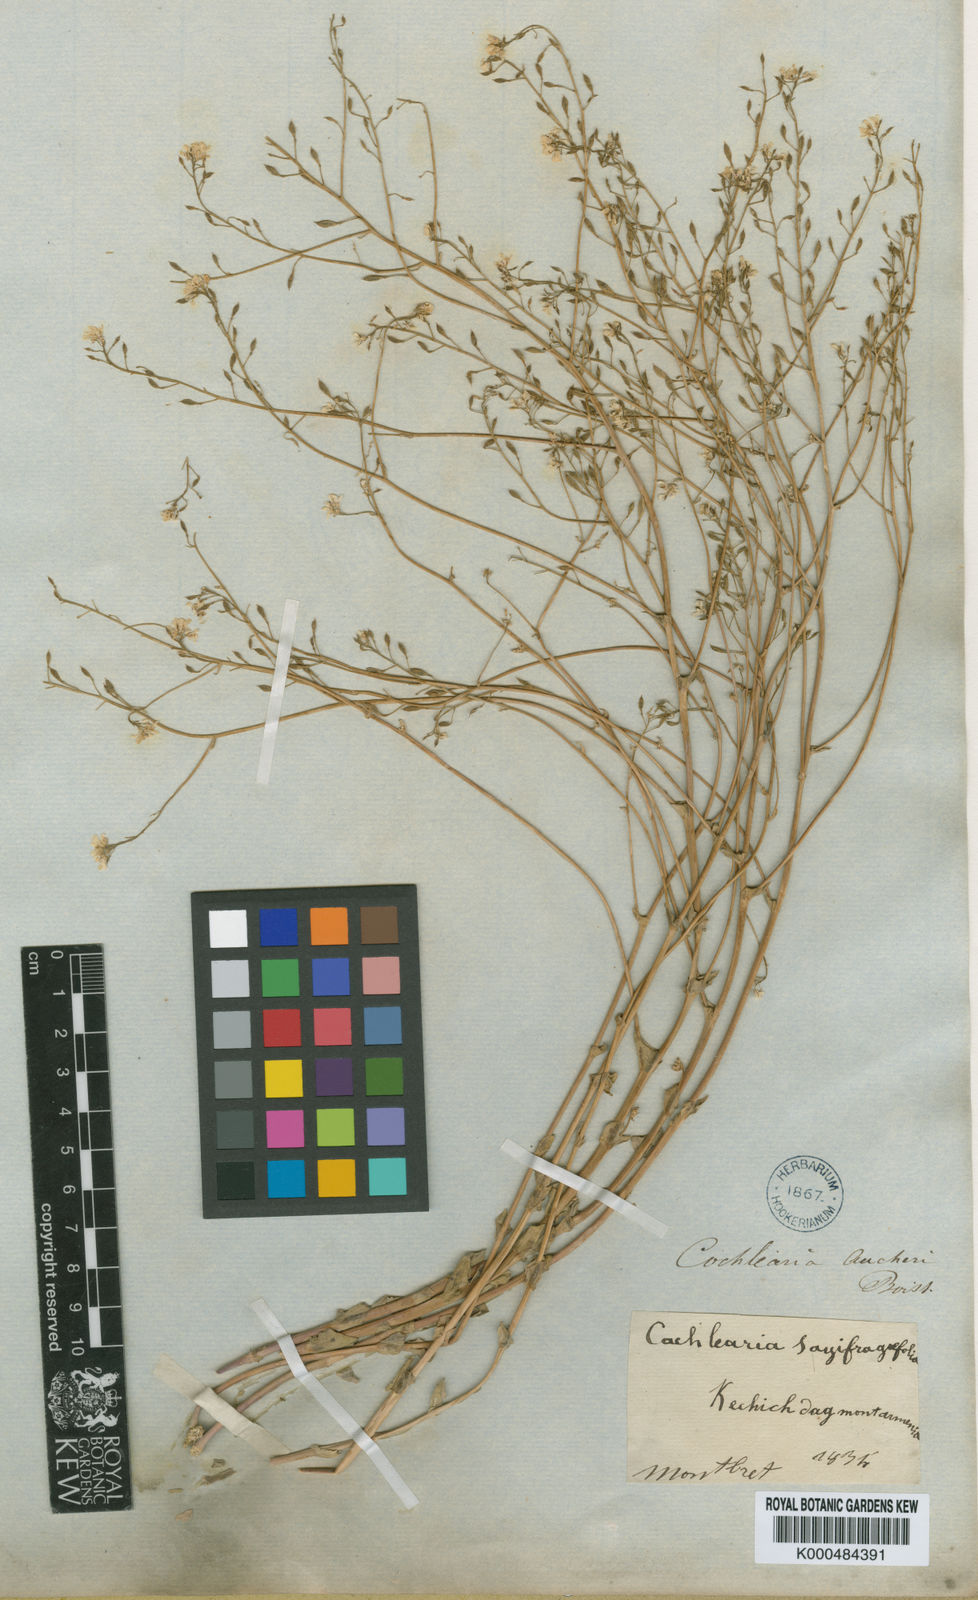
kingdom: Plantae
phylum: Tracheophyta
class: Magnoliopsida
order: Brassicales
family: Brassicaceae
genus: Pseudosempervivum
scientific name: Pseudosempervivum aucheri
